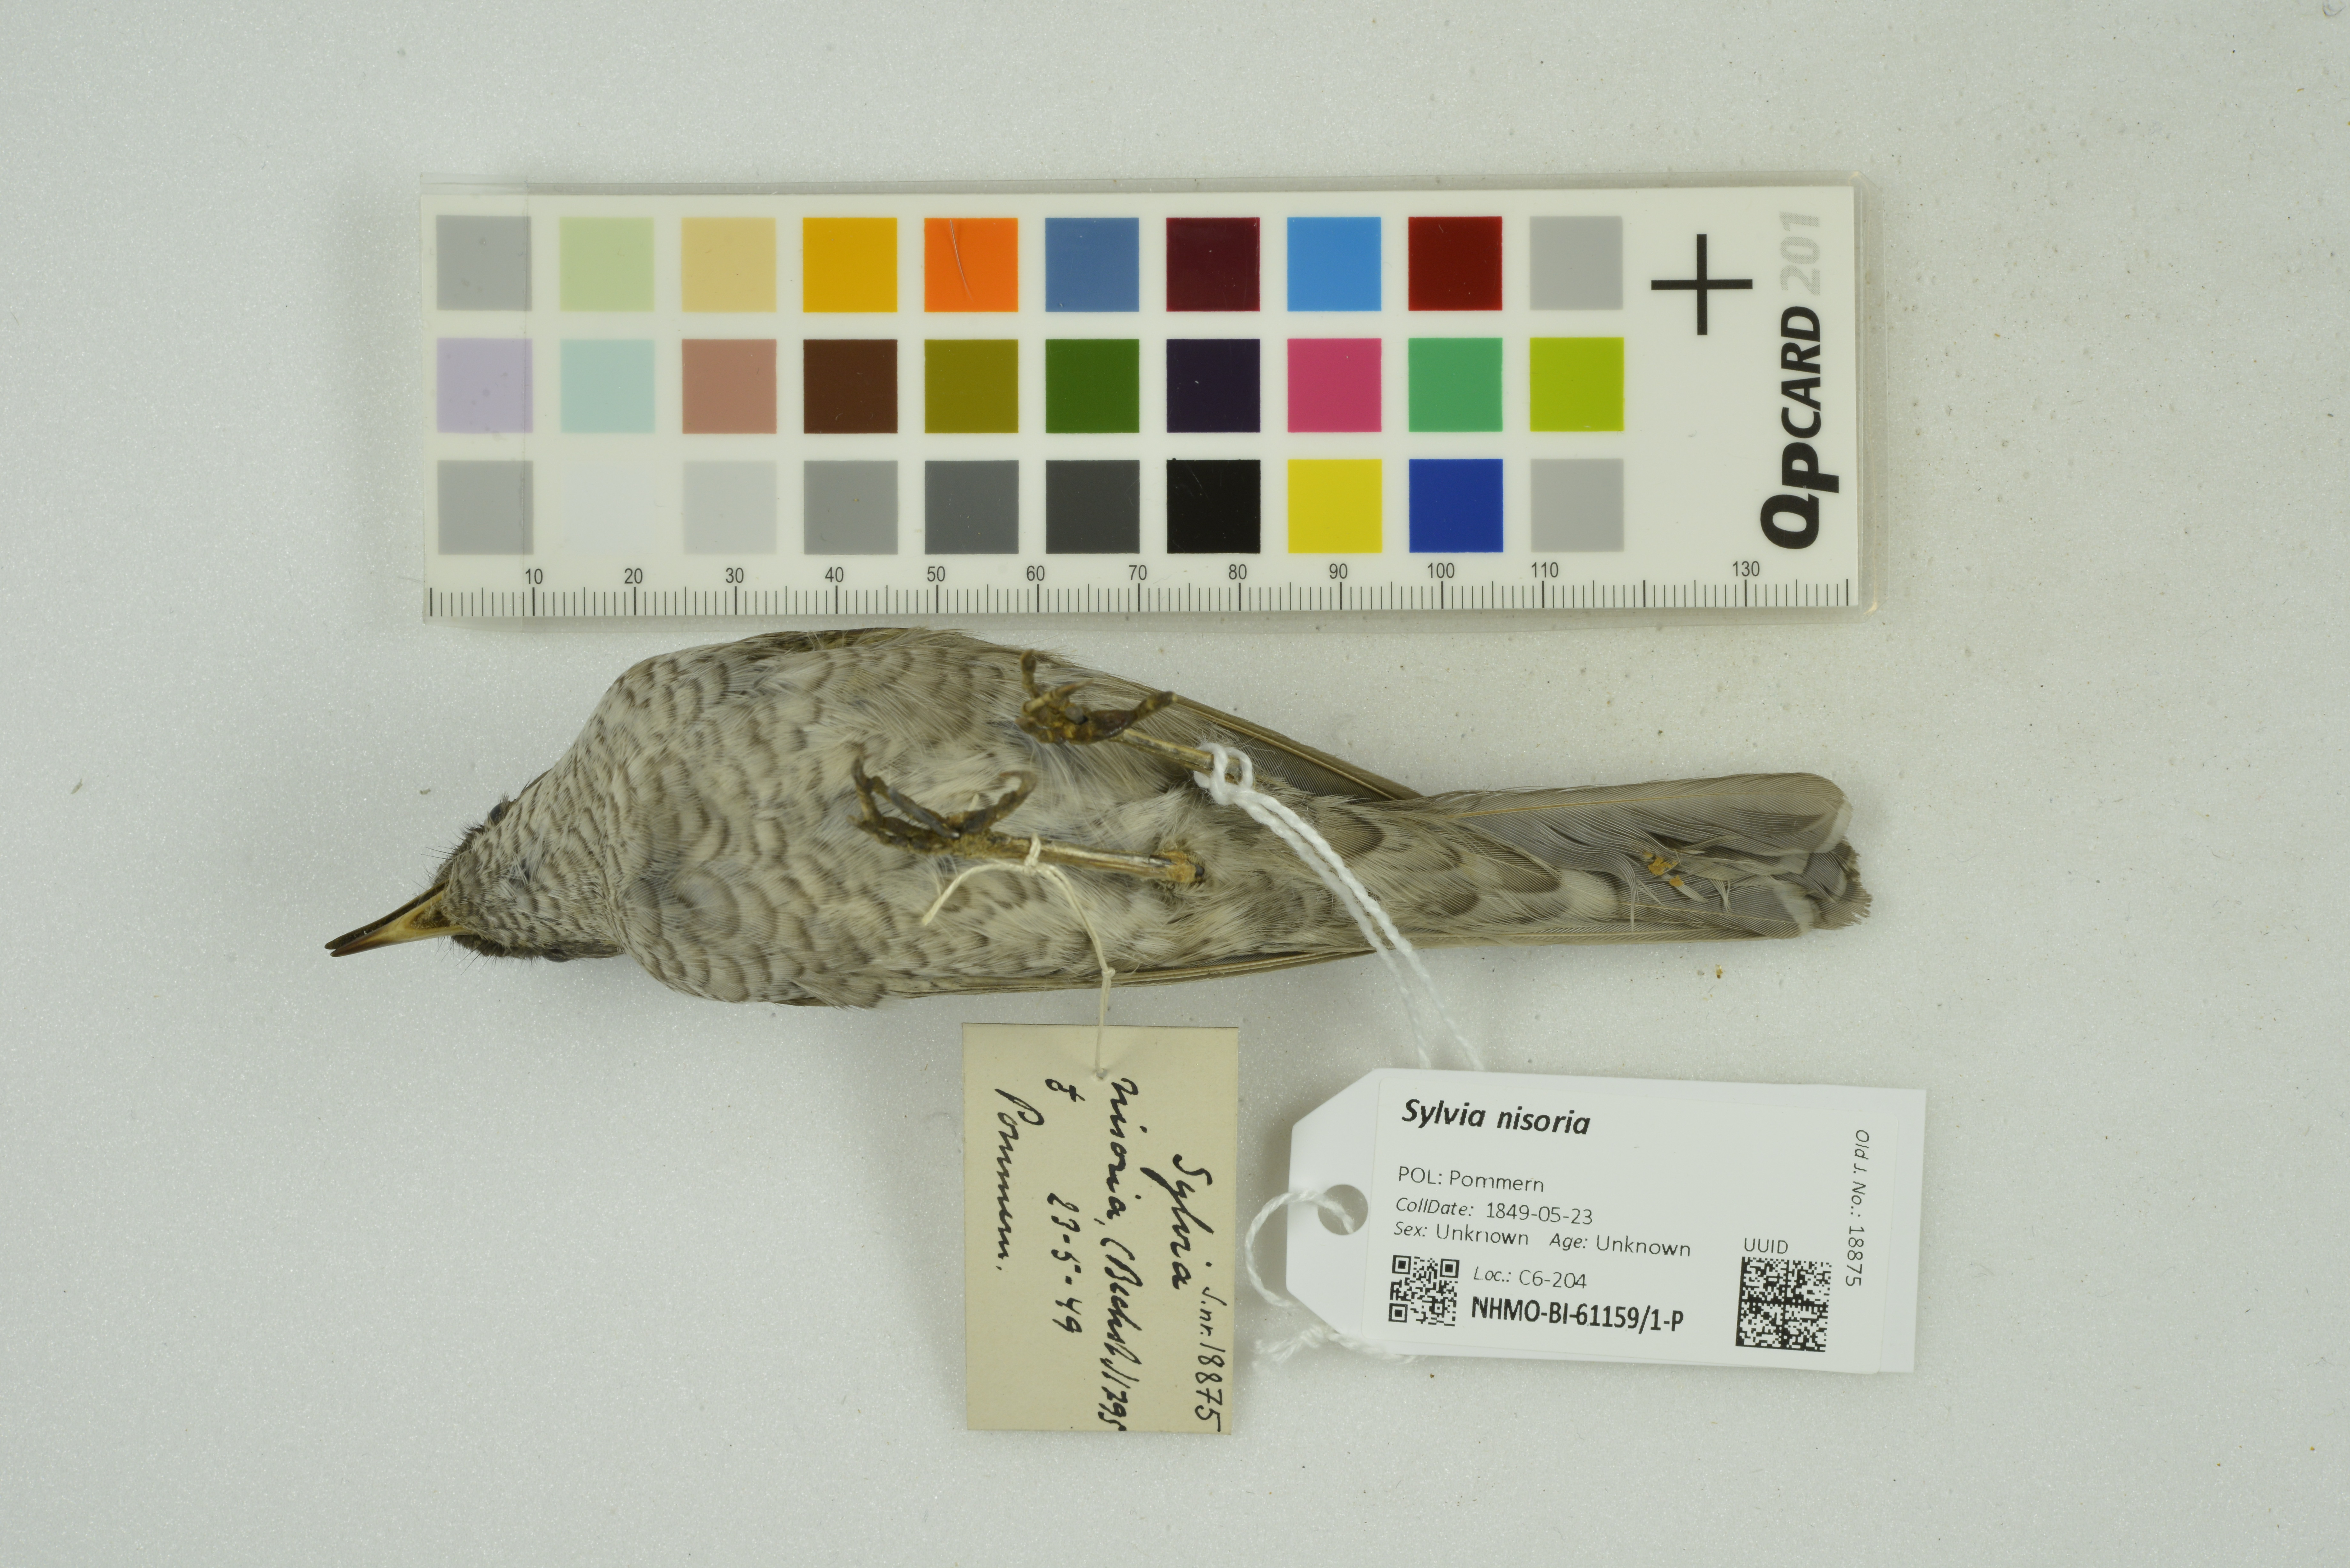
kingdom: Animalia
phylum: Chordata
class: Aves
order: Passeriformes
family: Sylviidae
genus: Sylvia
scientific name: Sylvia nisoria
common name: Barred warbler
